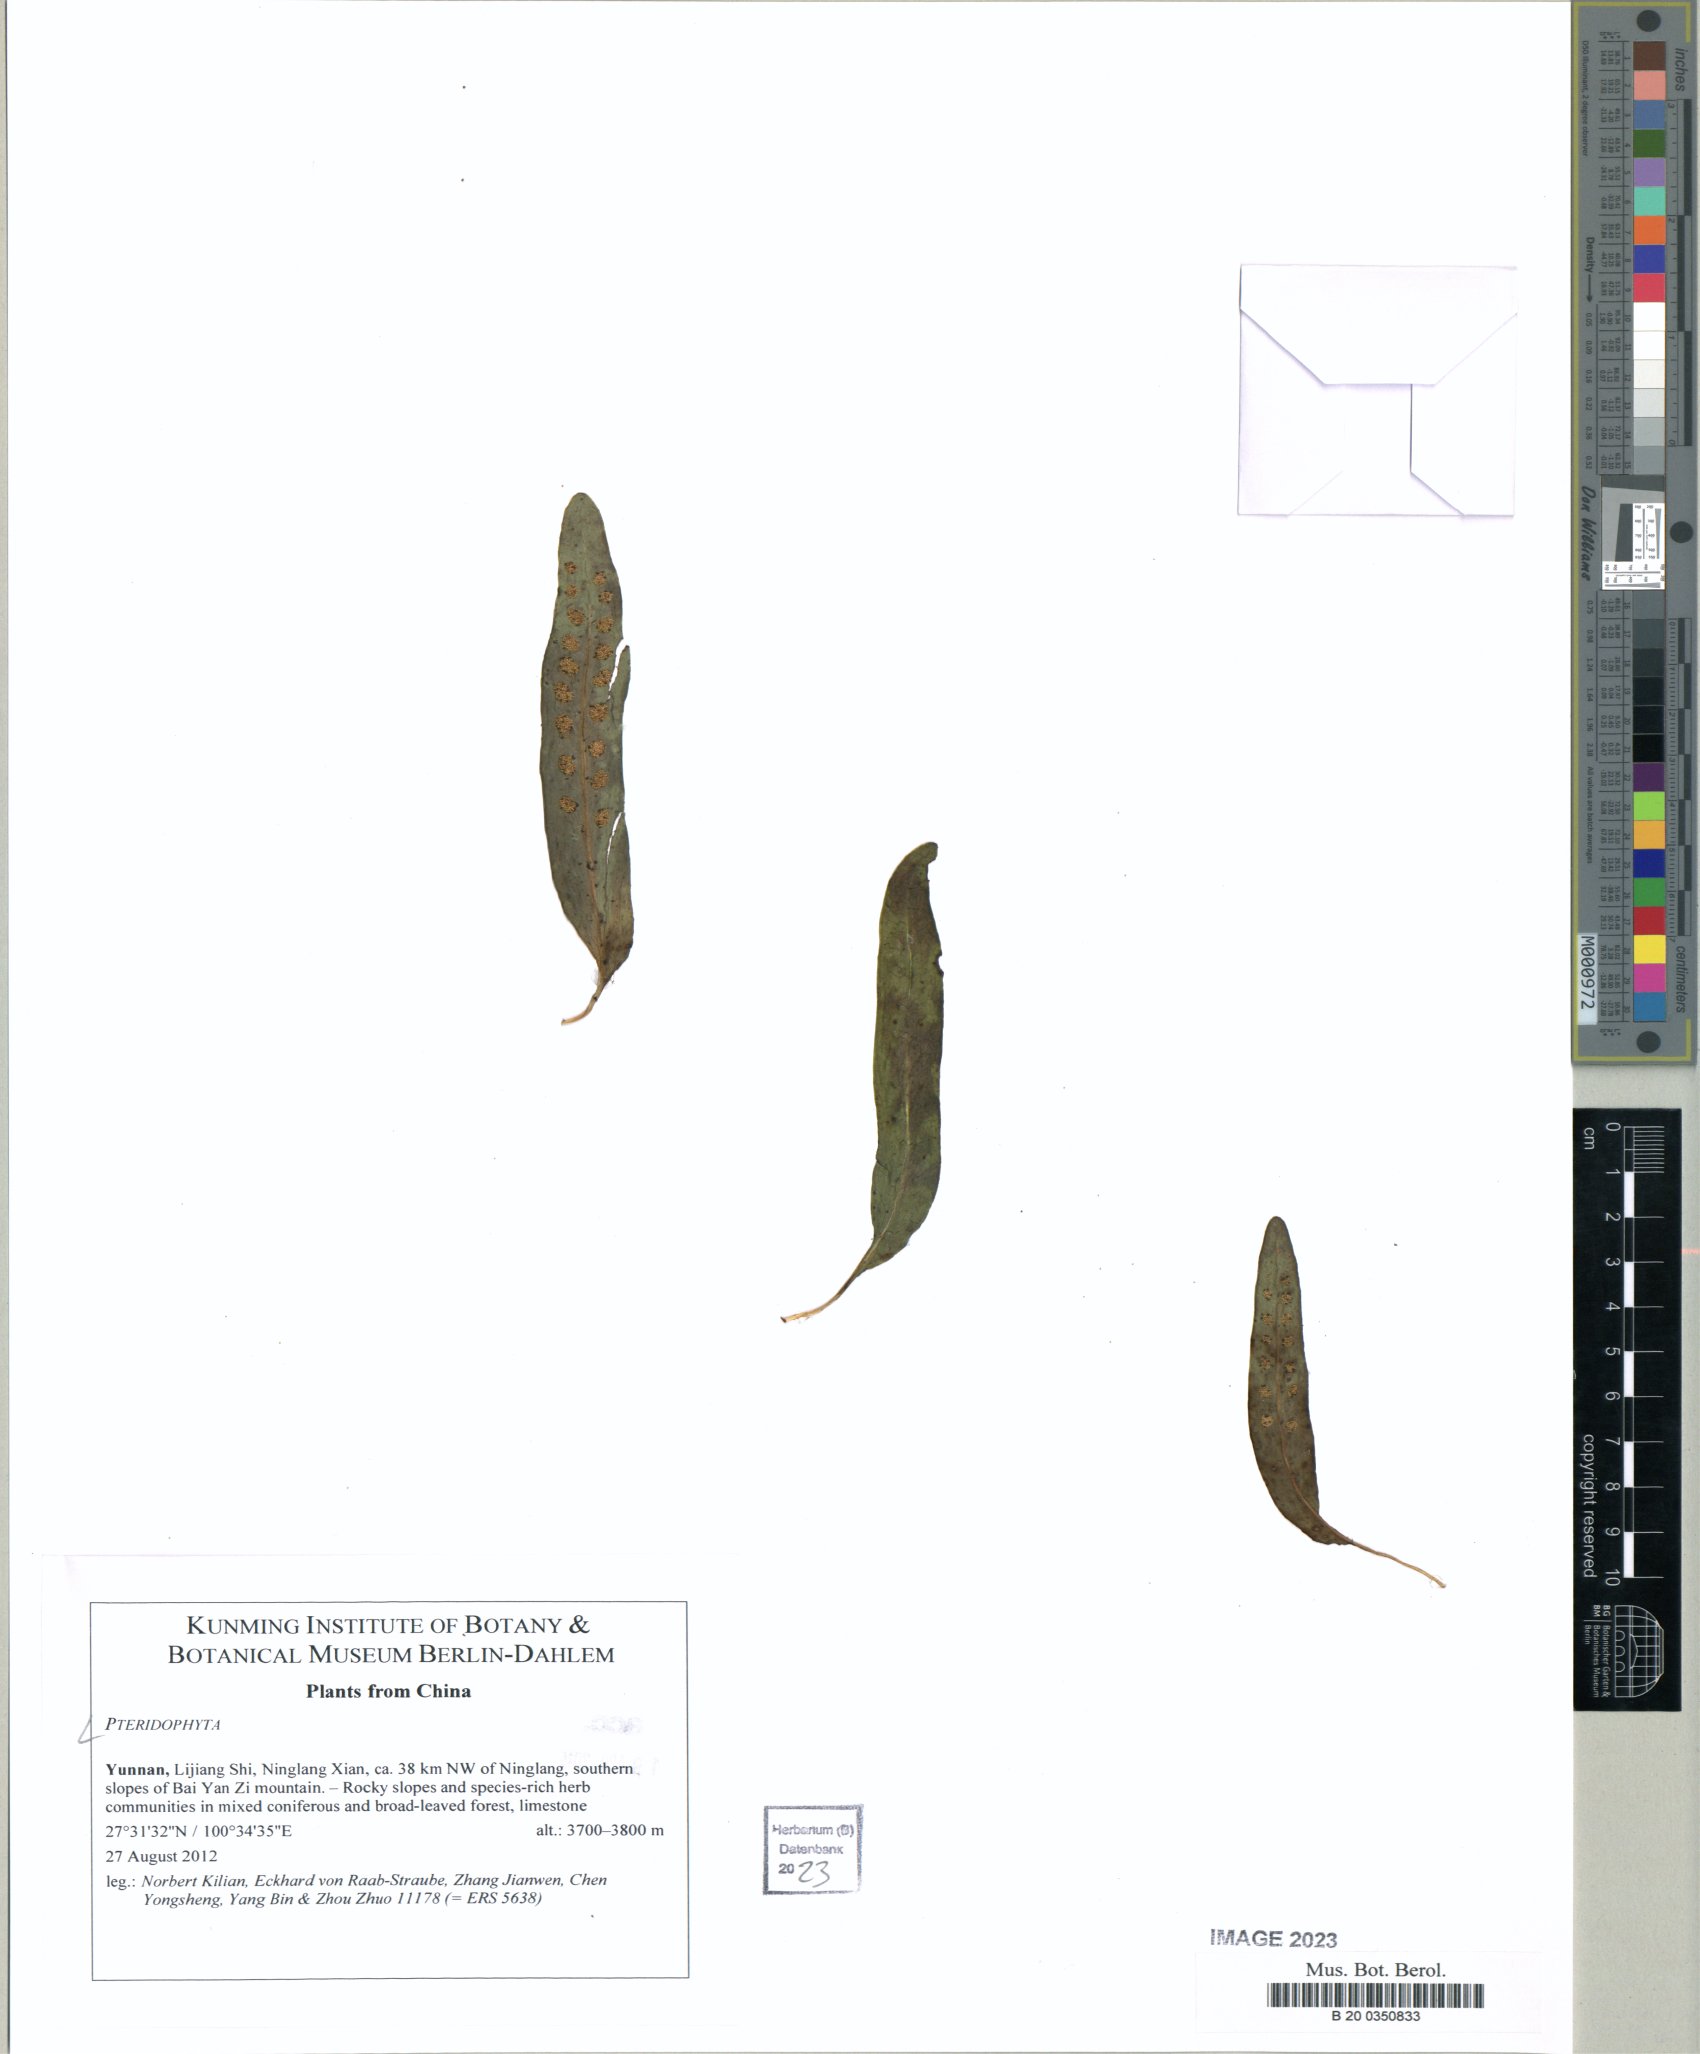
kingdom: Plantae
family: Pteridophyta
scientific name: Pteridophyta
